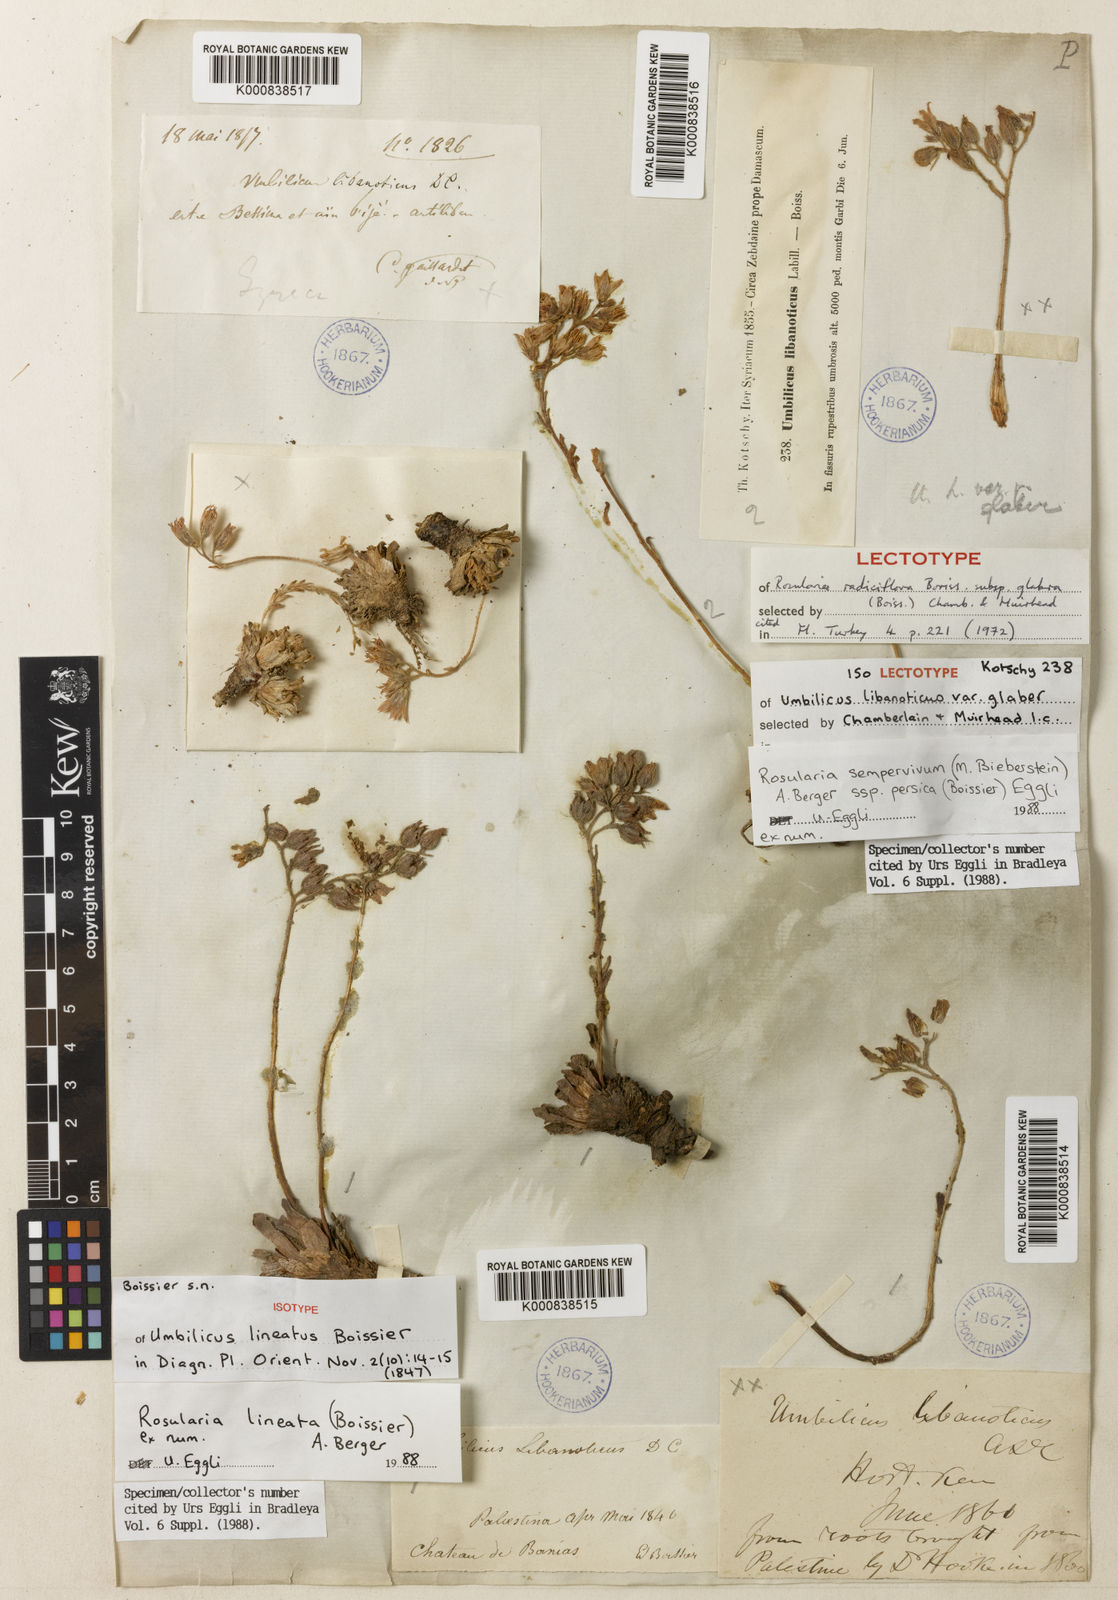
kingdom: Plantae
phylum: Tracheophyta
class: Magnoliopsida
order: Saxifragales
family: Crassulaceae
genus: Rosularia
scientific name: Rosularia sempervivum
